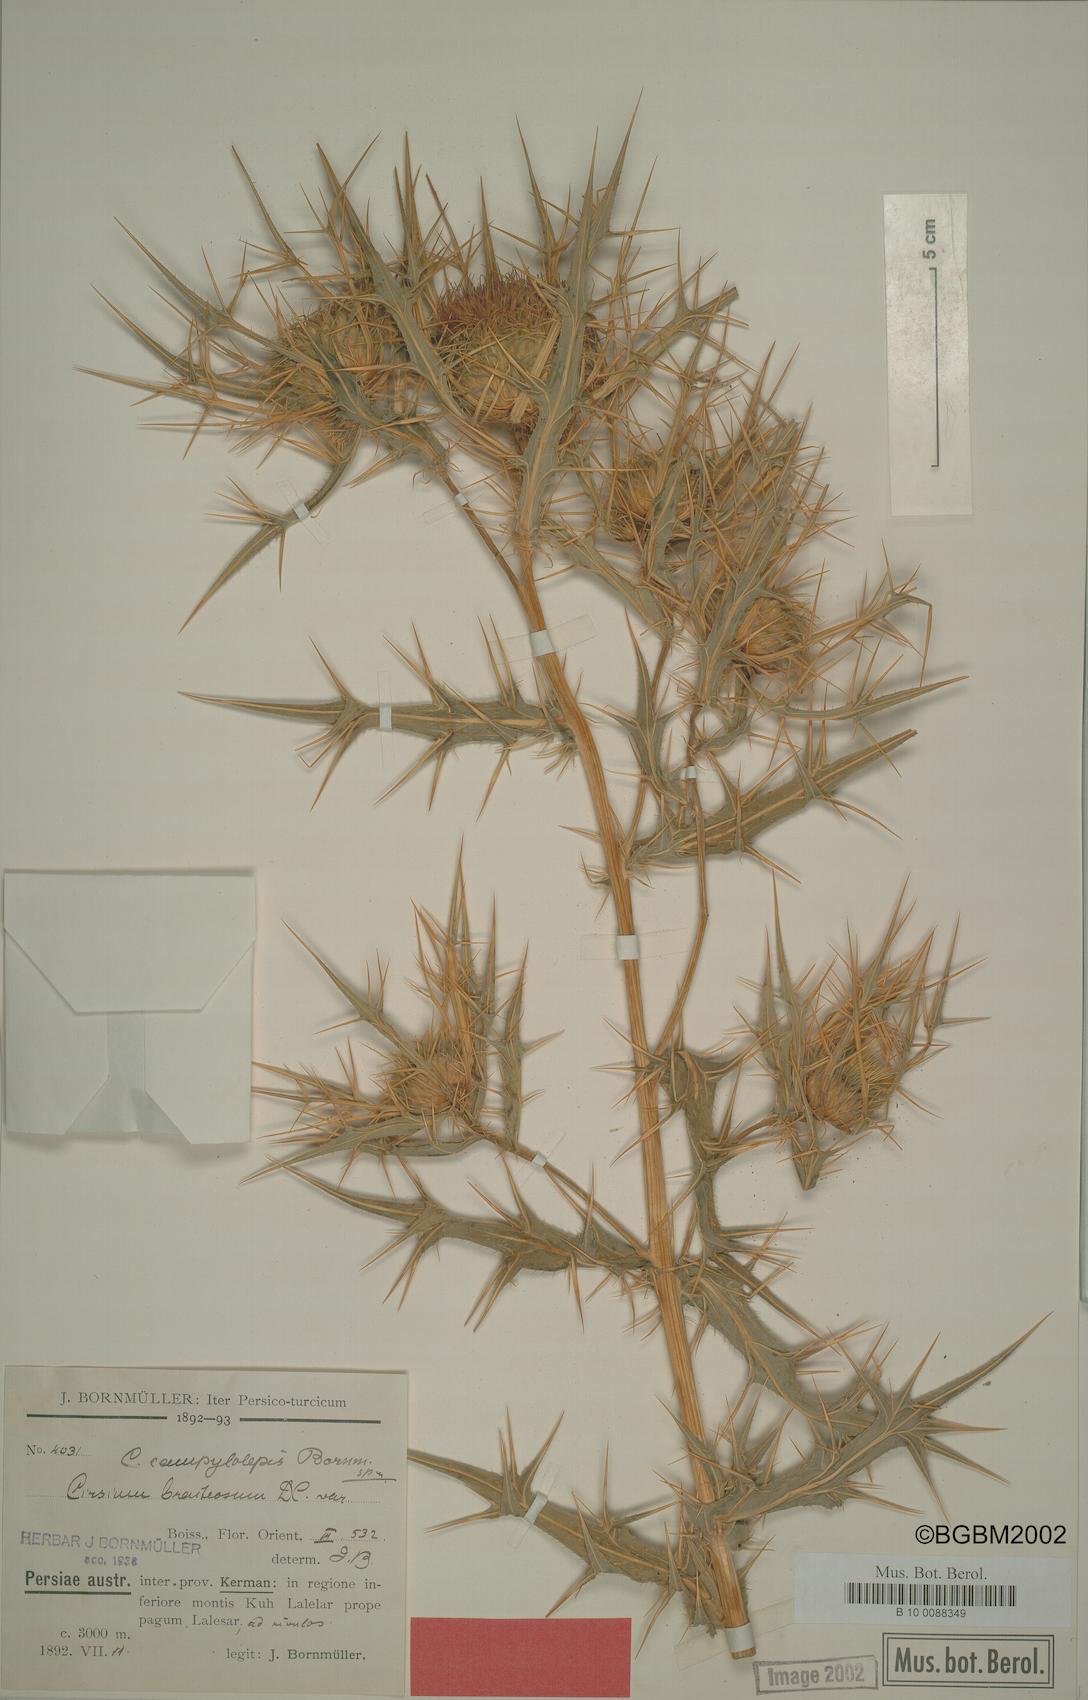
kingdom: Plantae
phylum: Tracheophyta
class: Magnoliopsida
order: Asterales
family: Asteraceae
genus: Cirsium
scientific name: Cirsium bracteosum
